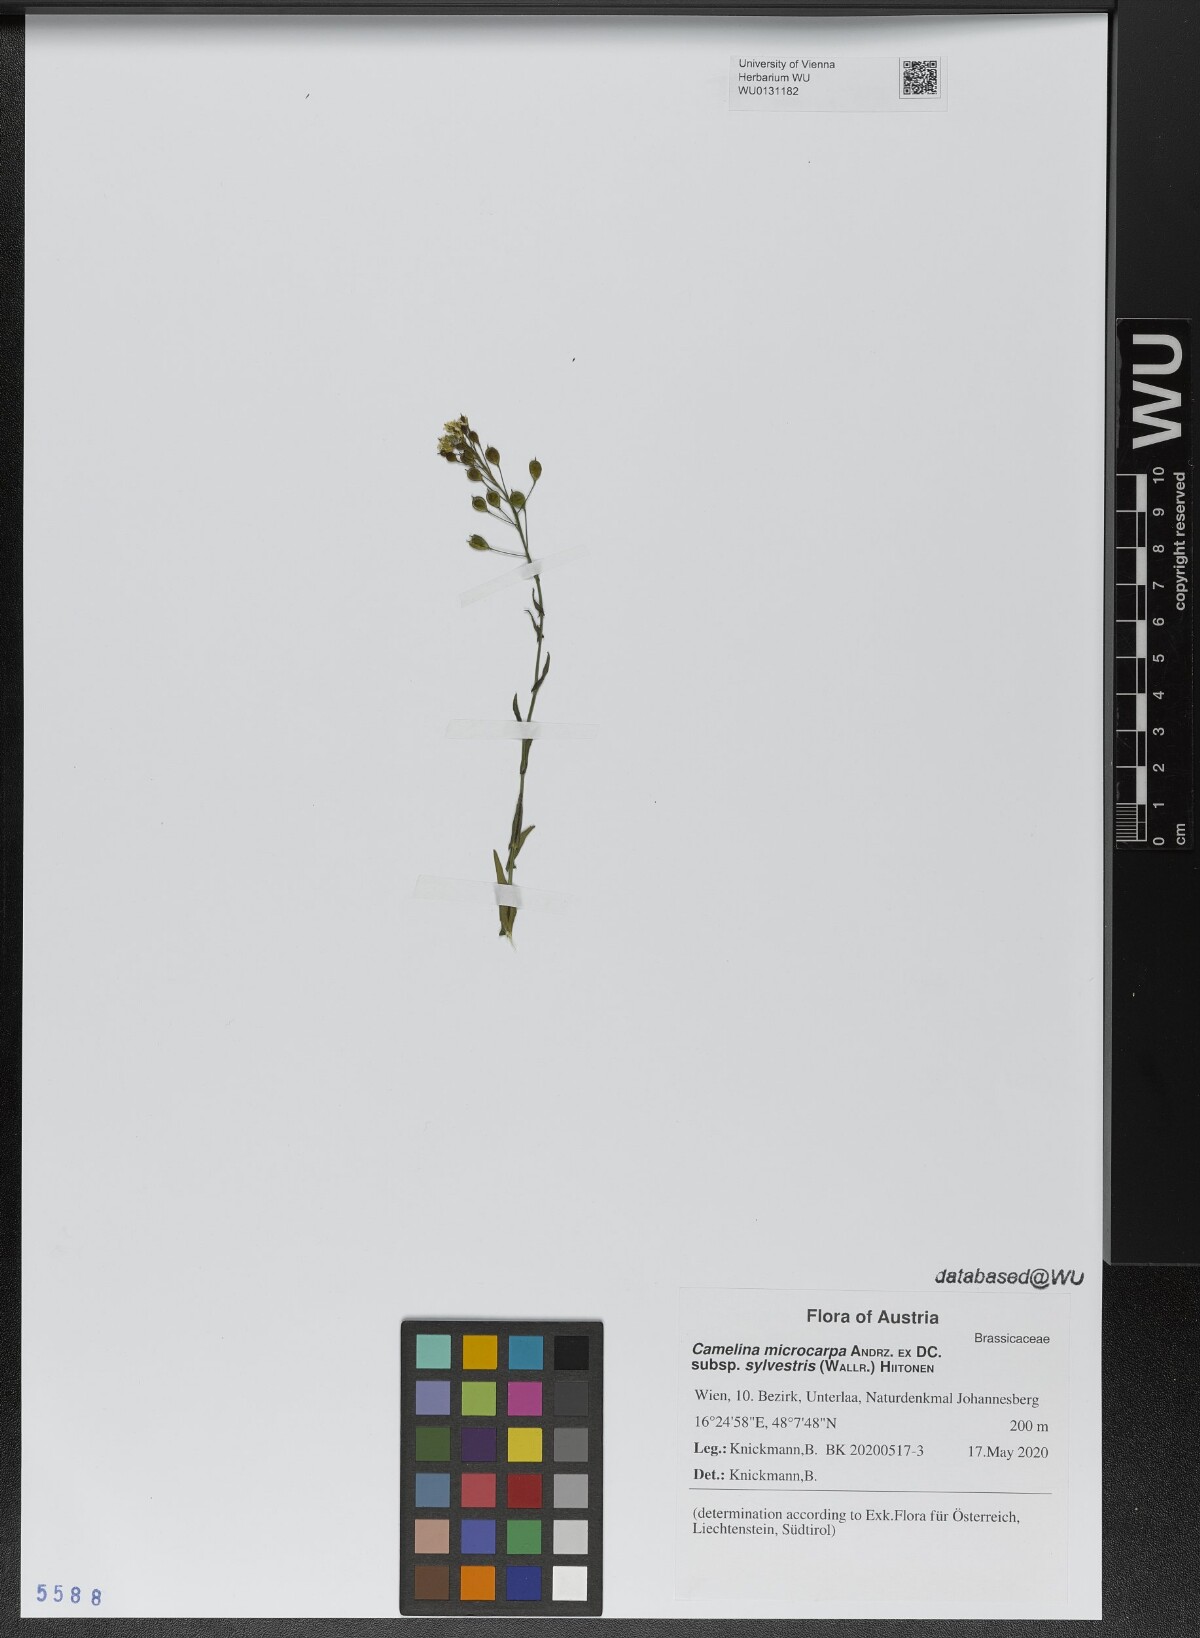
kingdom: Plantae
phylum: Tracheophyta
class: Magnoliopsida
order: Brassicales
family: Brassicaceae
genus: Camelina
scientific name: Camelina microcarpa
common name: Lesser gold-of-pleasure
